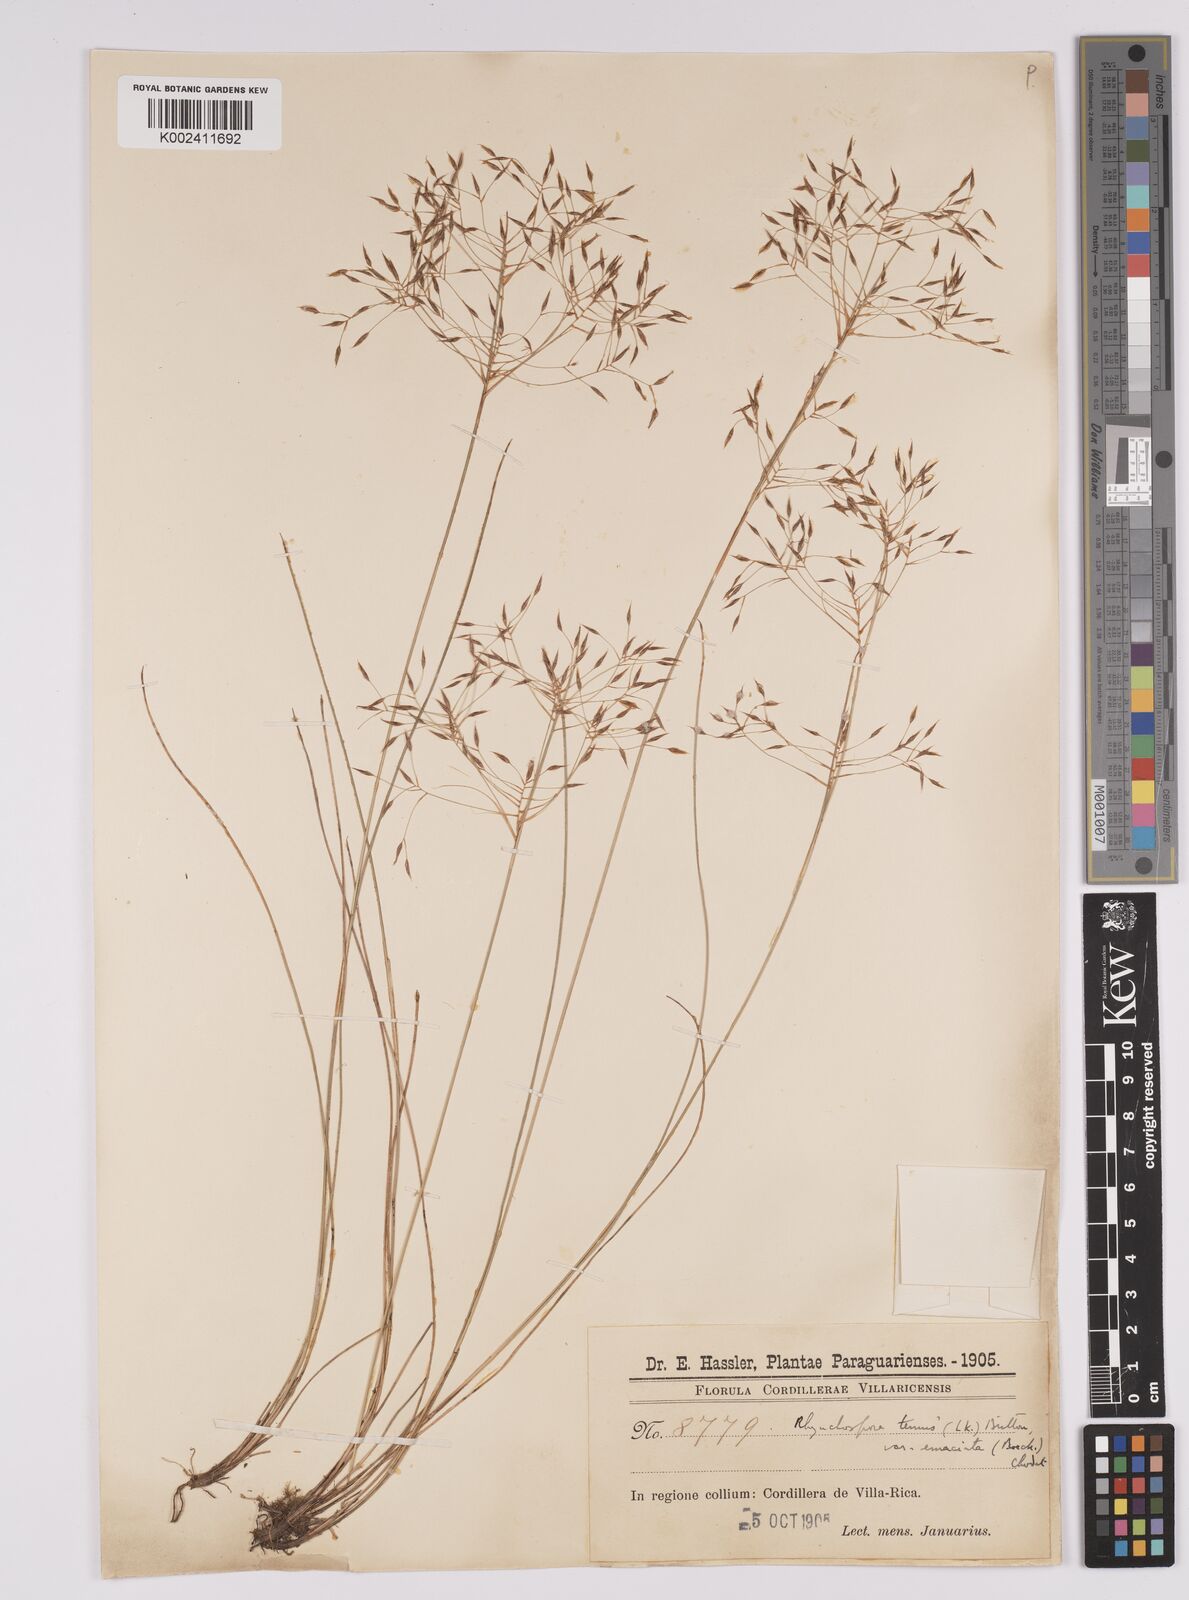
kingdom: Plantae
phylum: Tracheophyta
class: Liliopsida
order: Poales
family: Cyperaceae
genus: Rhynchospora
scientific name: Rhynchospora tenuis
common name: Quill beaksedge
